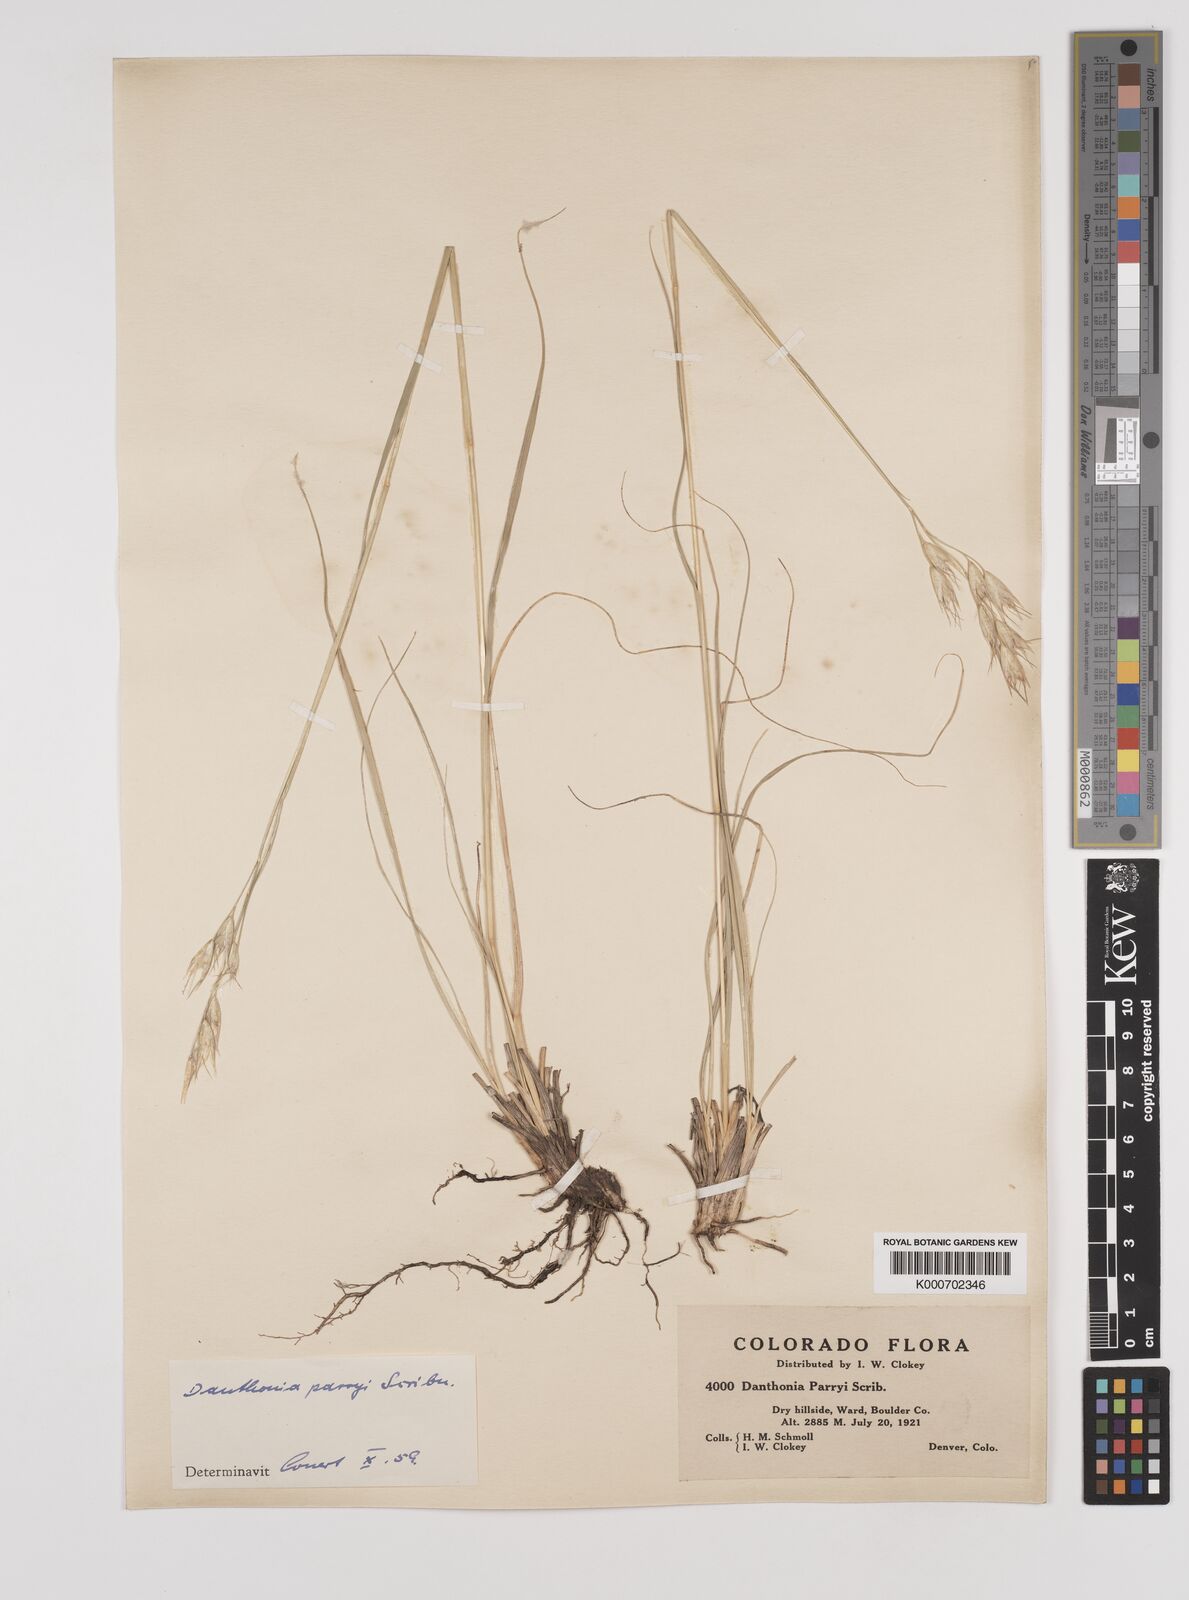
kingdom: Plantae
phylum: Tracheophyta
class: Liliopsida
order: Poales
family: Poaceae
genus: Danthonia
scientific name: Danthonia parryi
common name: Parry's oat grass
